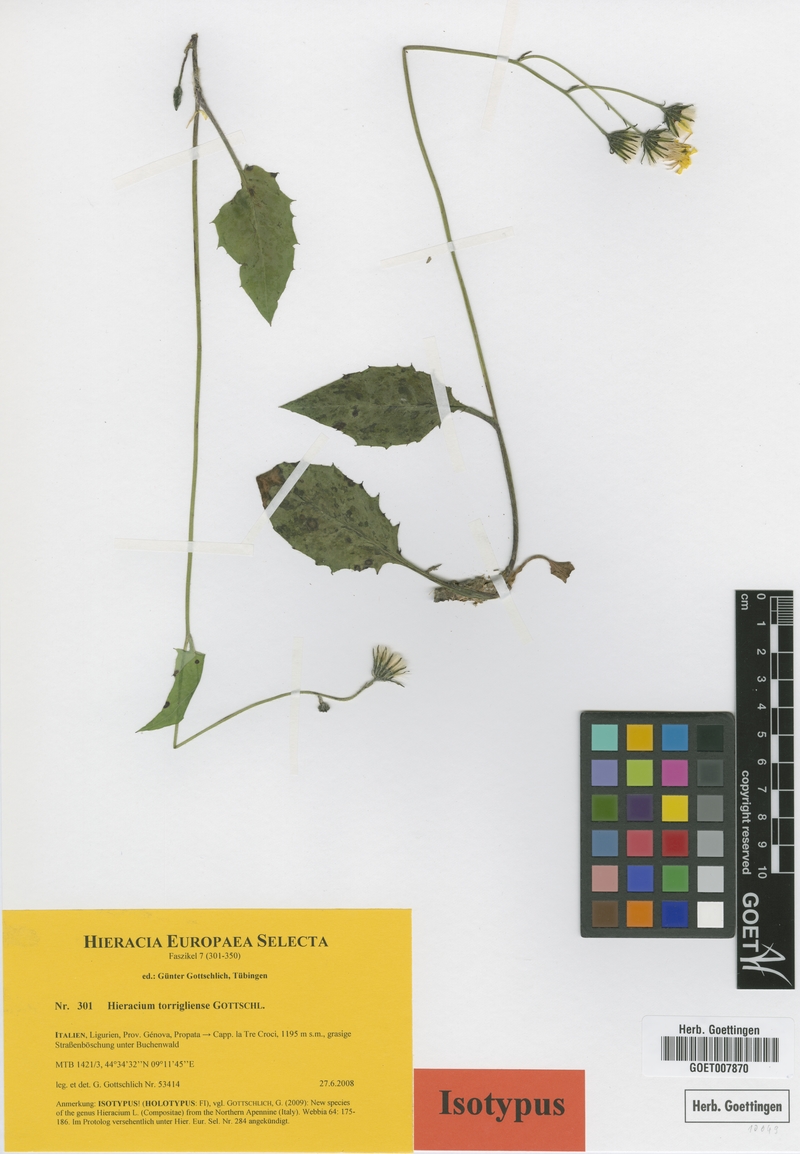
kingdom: Plantae
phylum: Tracheophyta
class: Magnoliopsida
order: Asterales
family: Asteraceae
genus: Hieracium
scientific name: Hieracium torrigliense
